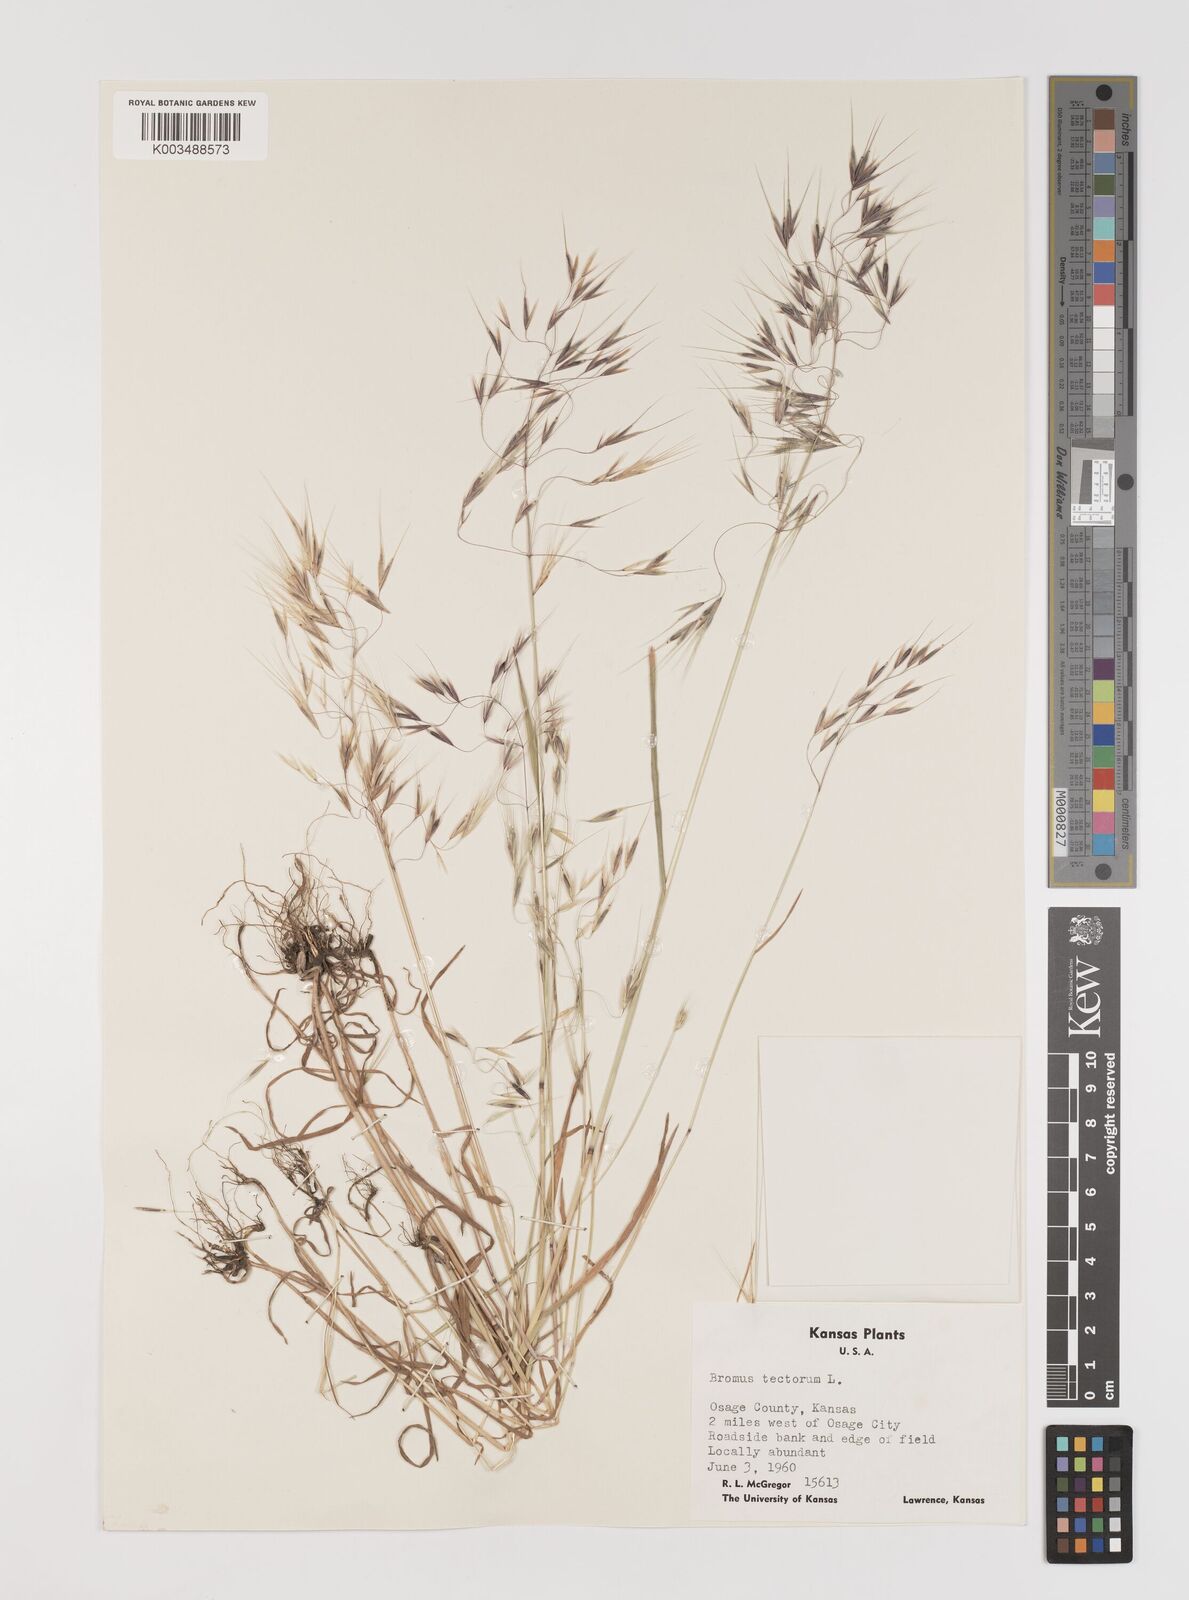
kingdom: Plantae
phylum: Tracheophyta
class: Liliopsida
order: Poales
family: Poaceae
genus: Bromus
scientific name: Bromus tectorum
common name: Cheatgrass
